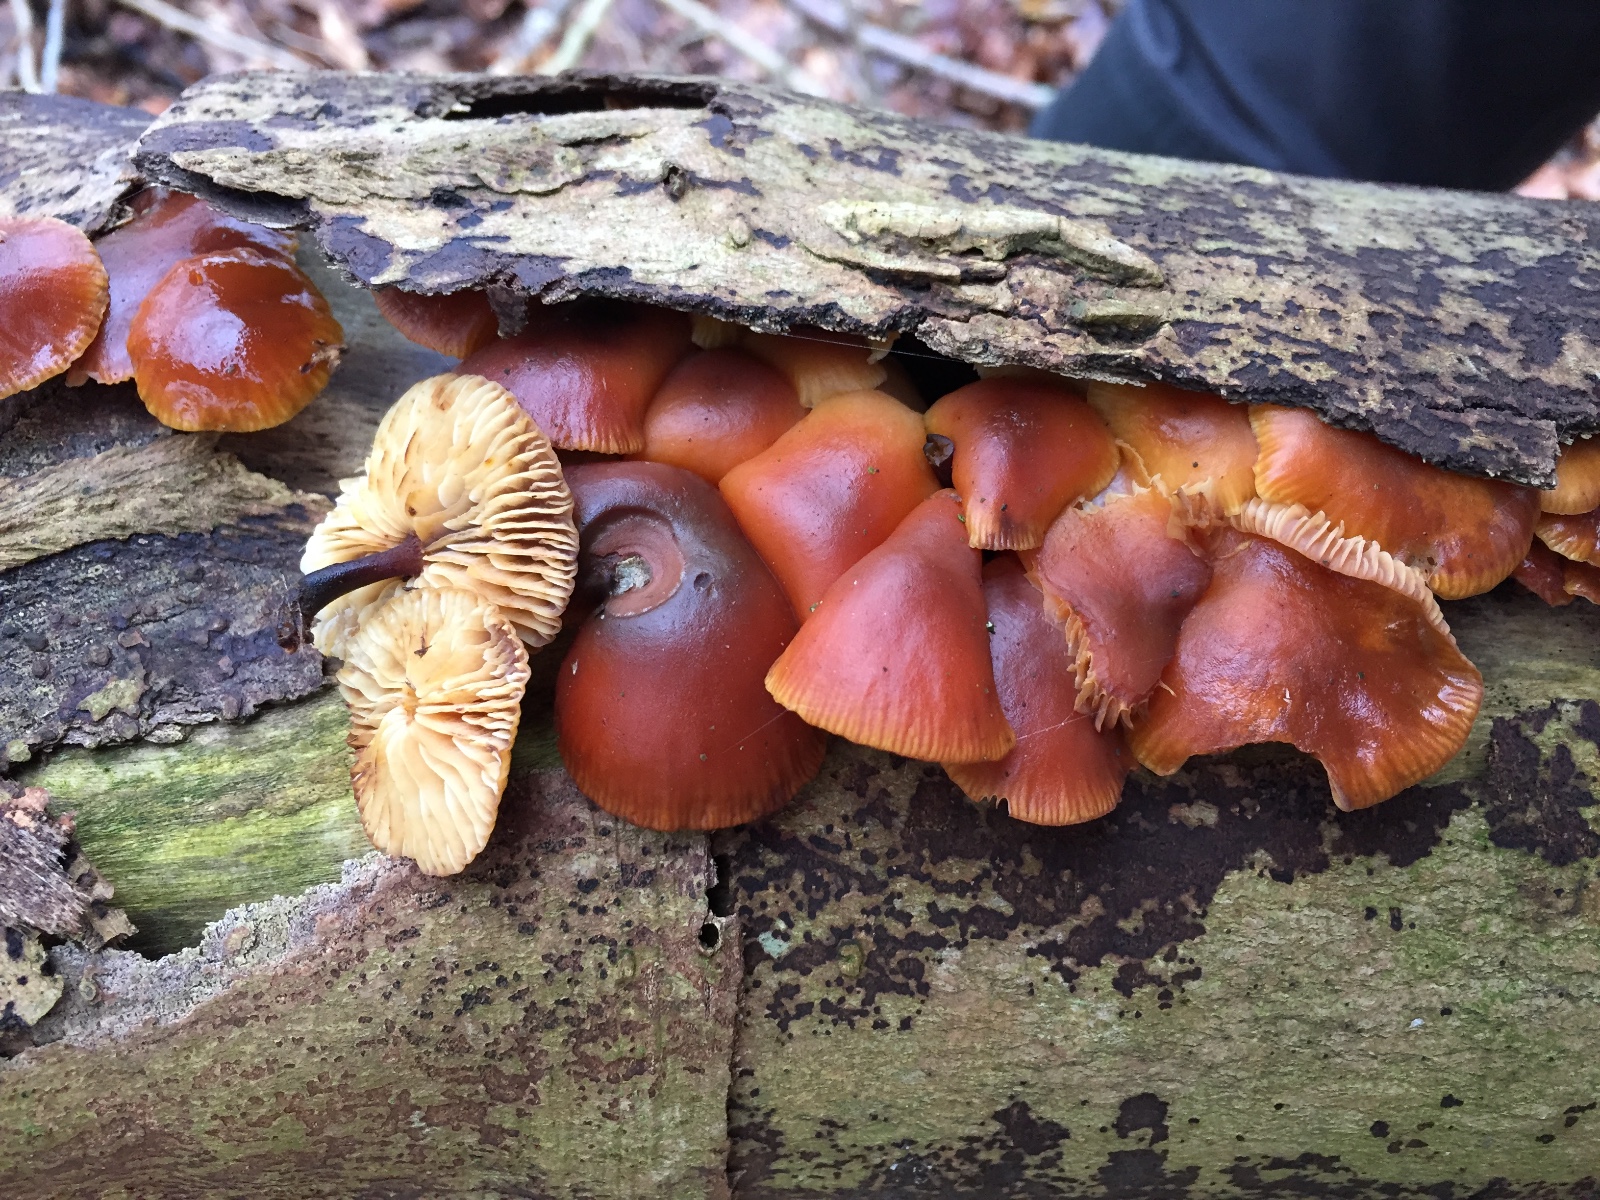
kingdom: Fungi
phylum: Basidiomycota
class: Agaricomycetes
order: Agaricales
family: Physalacriaceae
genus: Flammulina
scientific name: Flammulina velutipes
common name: gul fløjlsfod
